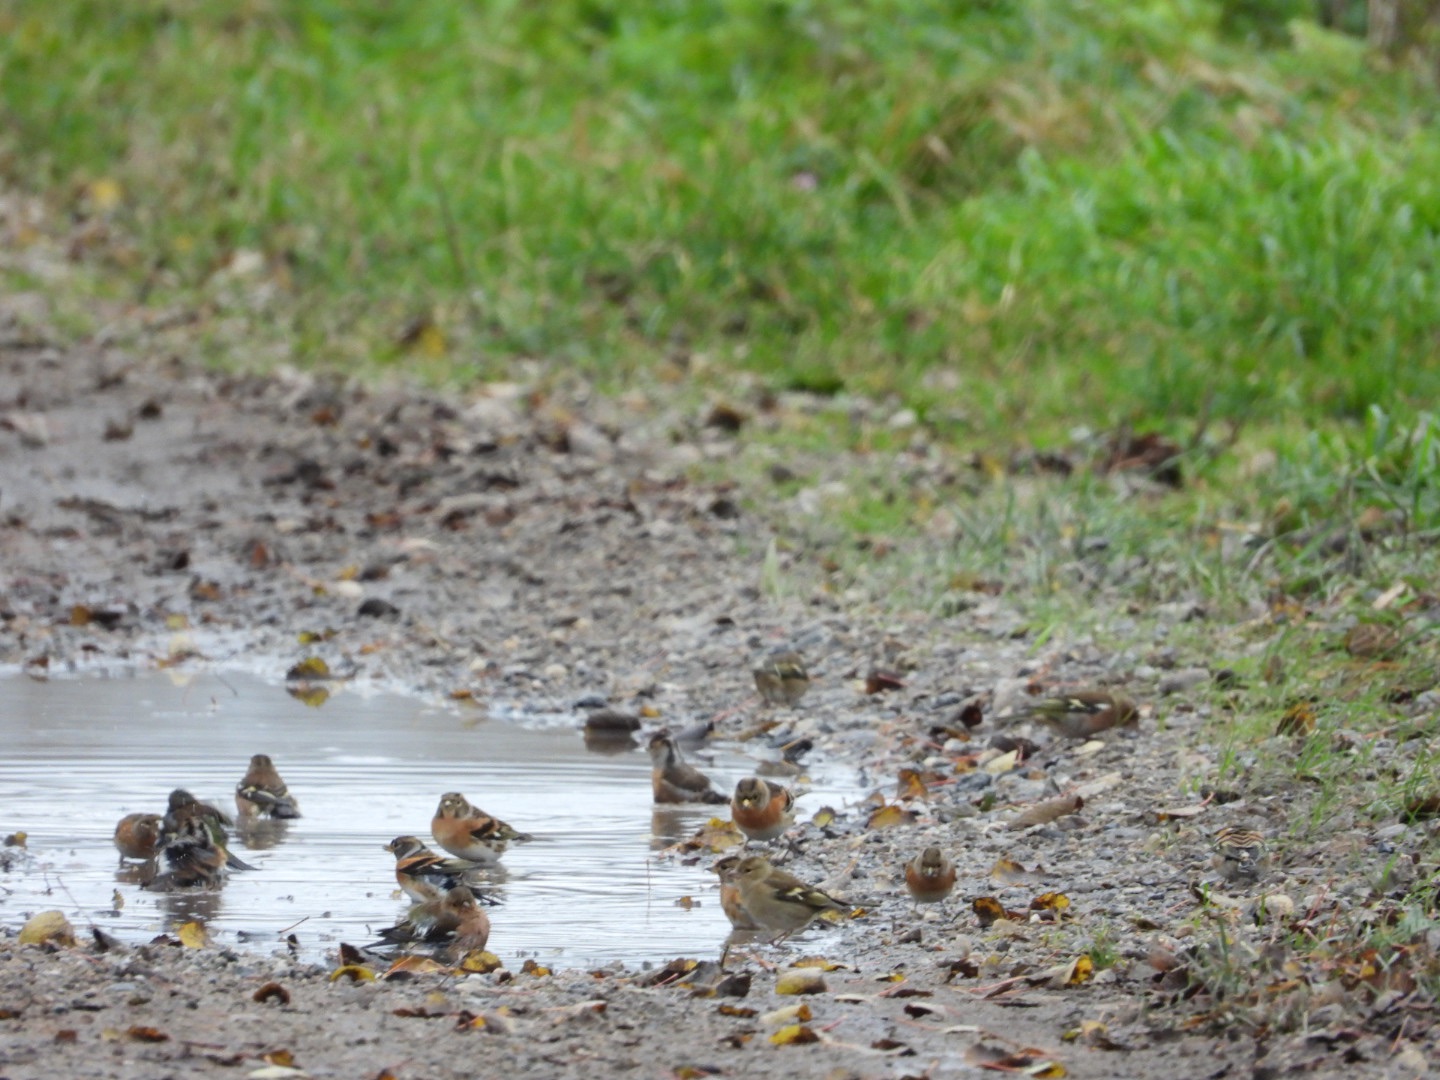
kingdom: Animalia
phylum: Chordata
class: Aves
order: Passeriformes
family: Fringillidae
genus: Fringilla
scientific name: Fringilla montifringilla
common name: Kvækerfinke
